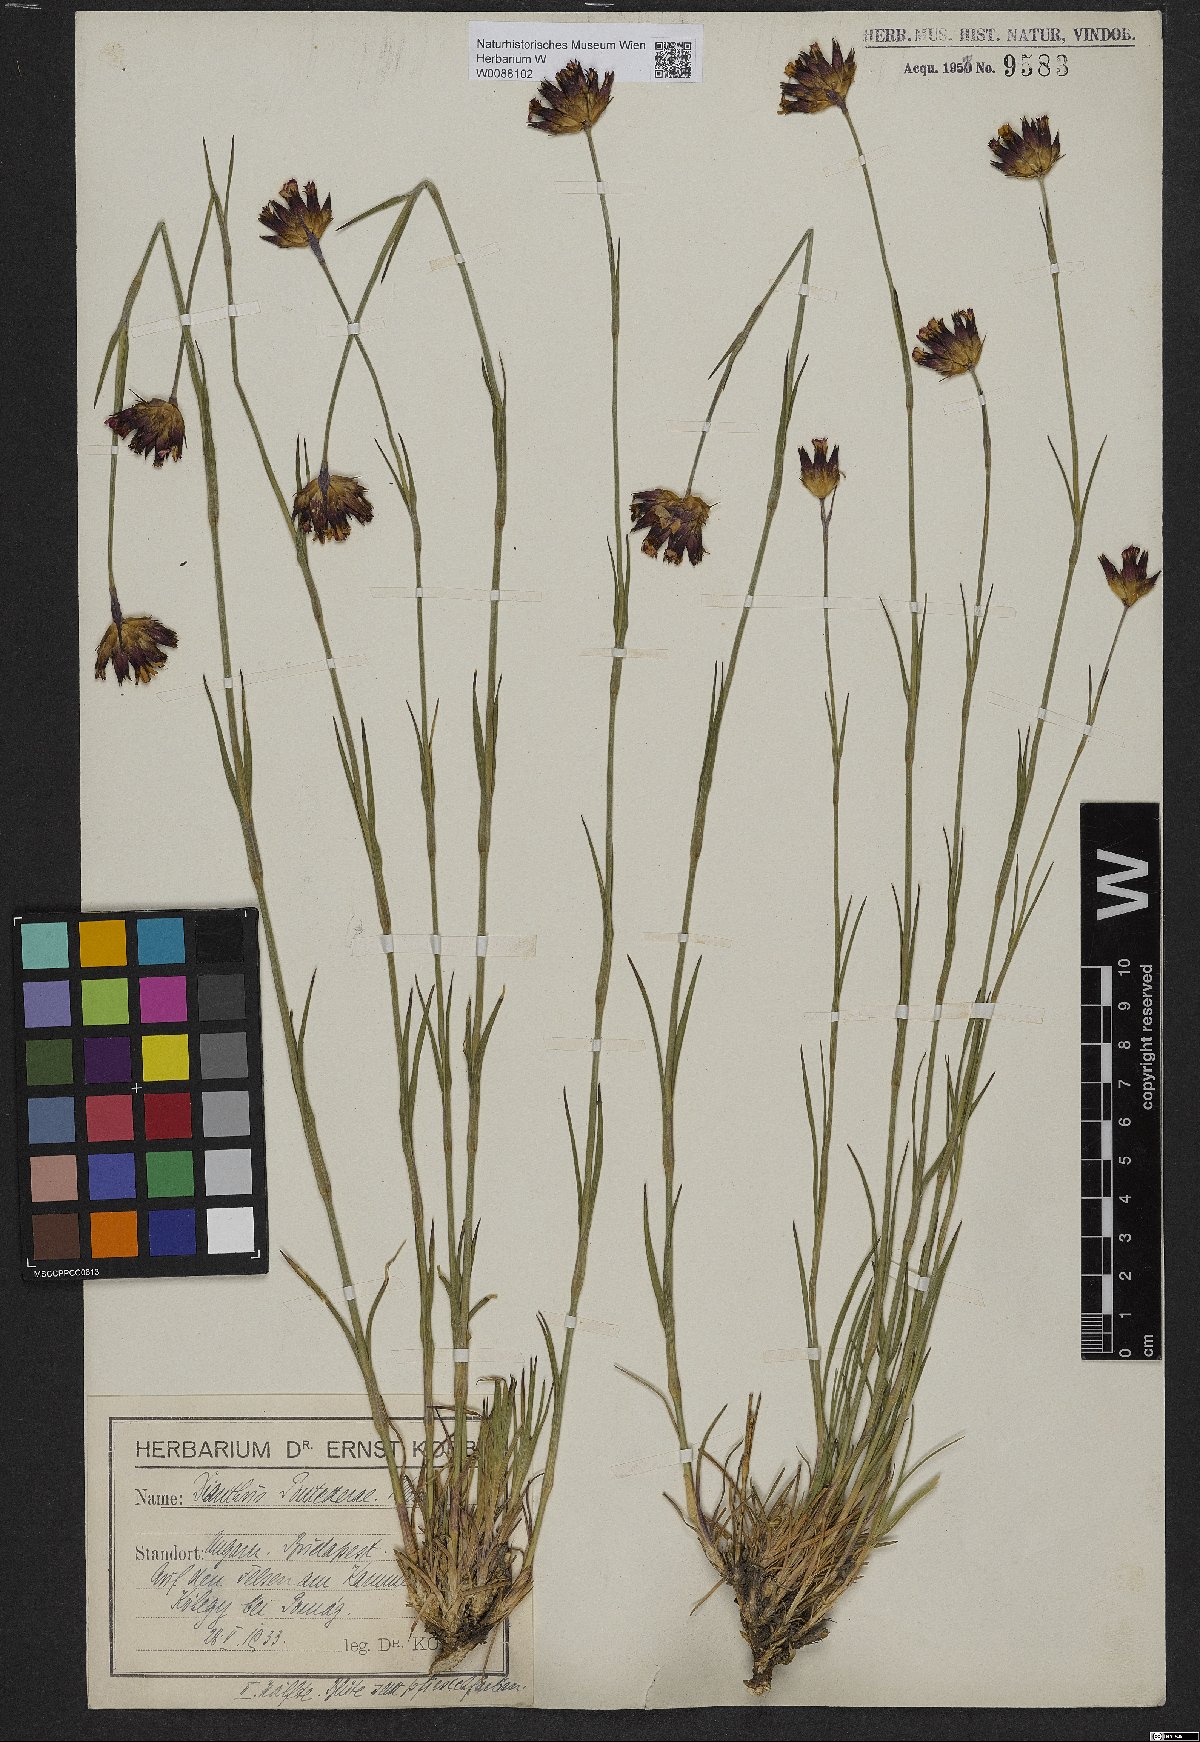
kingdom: Plantae
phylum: Tracheophyta
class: Magnoliopsida
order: Caryophyllales
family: Caryophyllaceae
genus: Dianthus
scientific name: Dianthus pontederae
